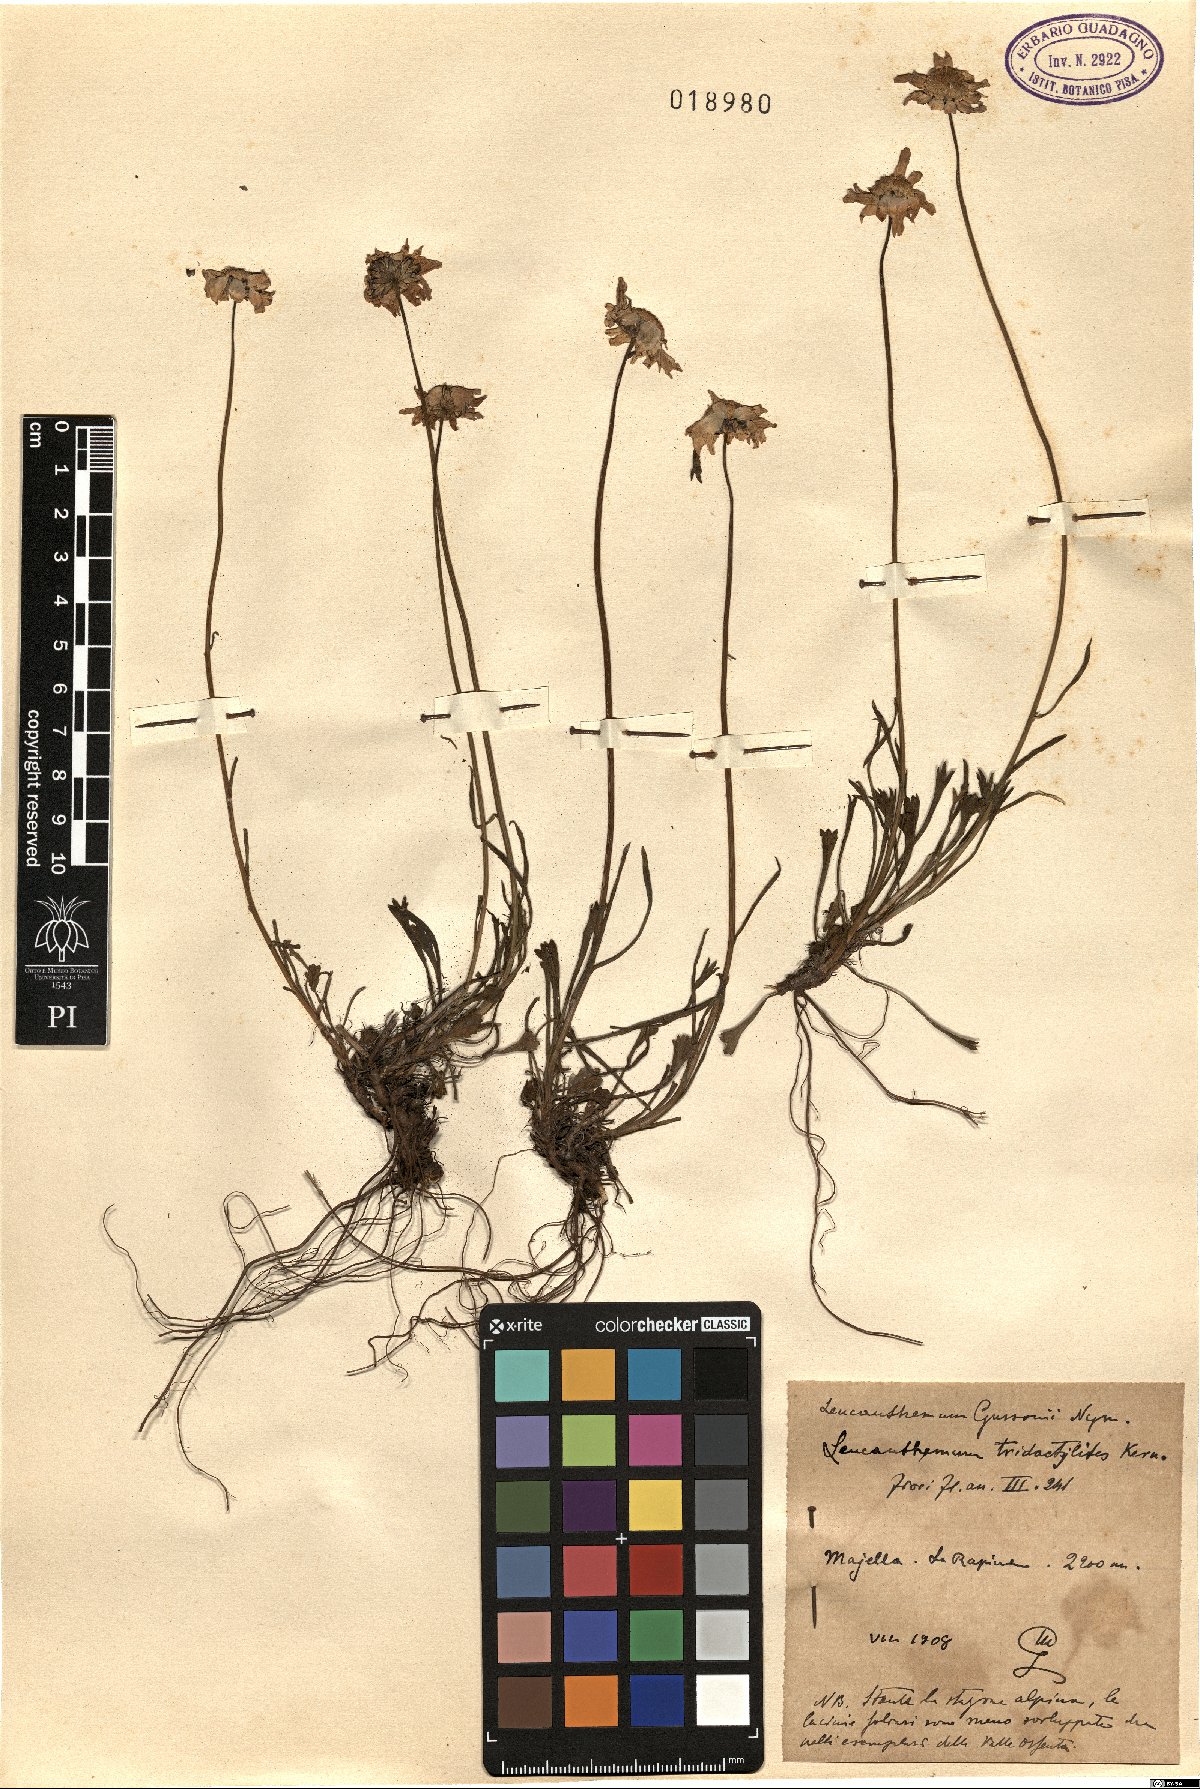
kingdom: Plantae
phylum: Tracheophyta
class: Magnoliopsida
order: Asterales
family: Asteraceae
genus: Leucanthemum
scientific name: Leucanthemum tridactylites
